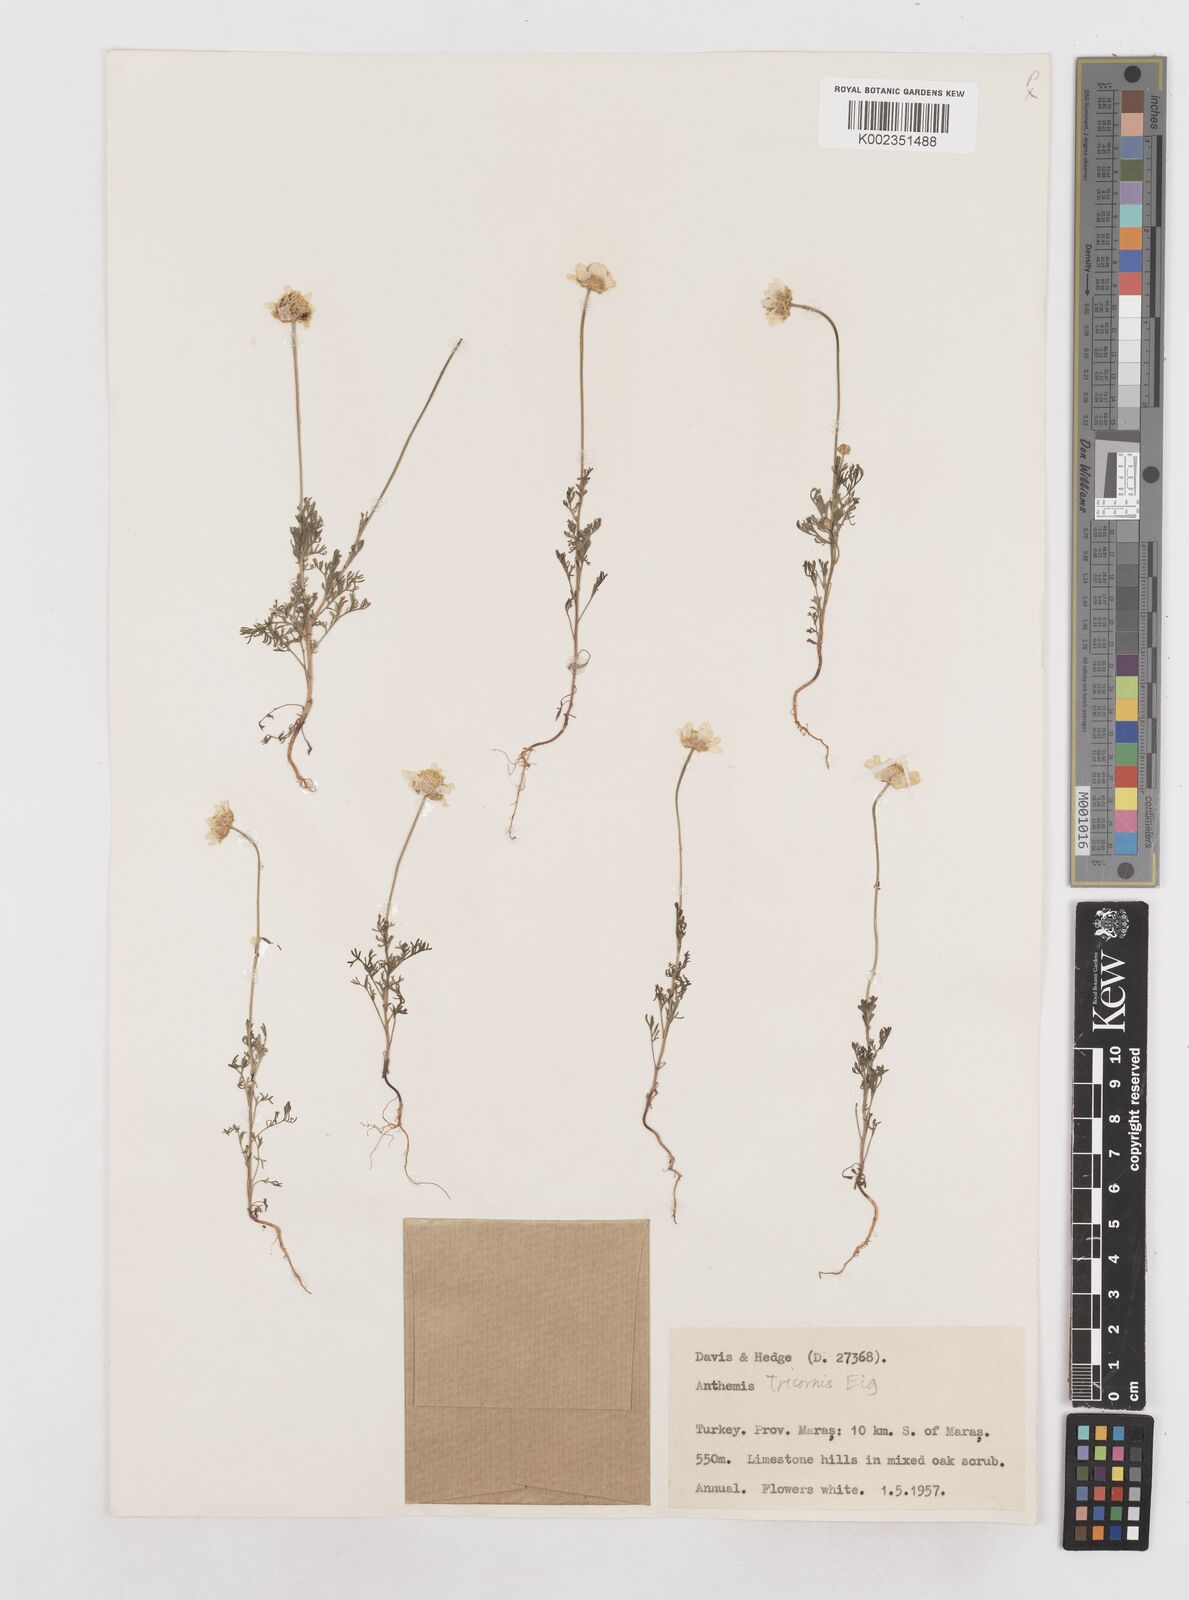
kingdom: Plantae
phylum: Tracheophyta
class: Magnoliopsida
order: Asterales
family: Asteraceae
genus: Anthemis
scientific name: Anthemis tricornis
